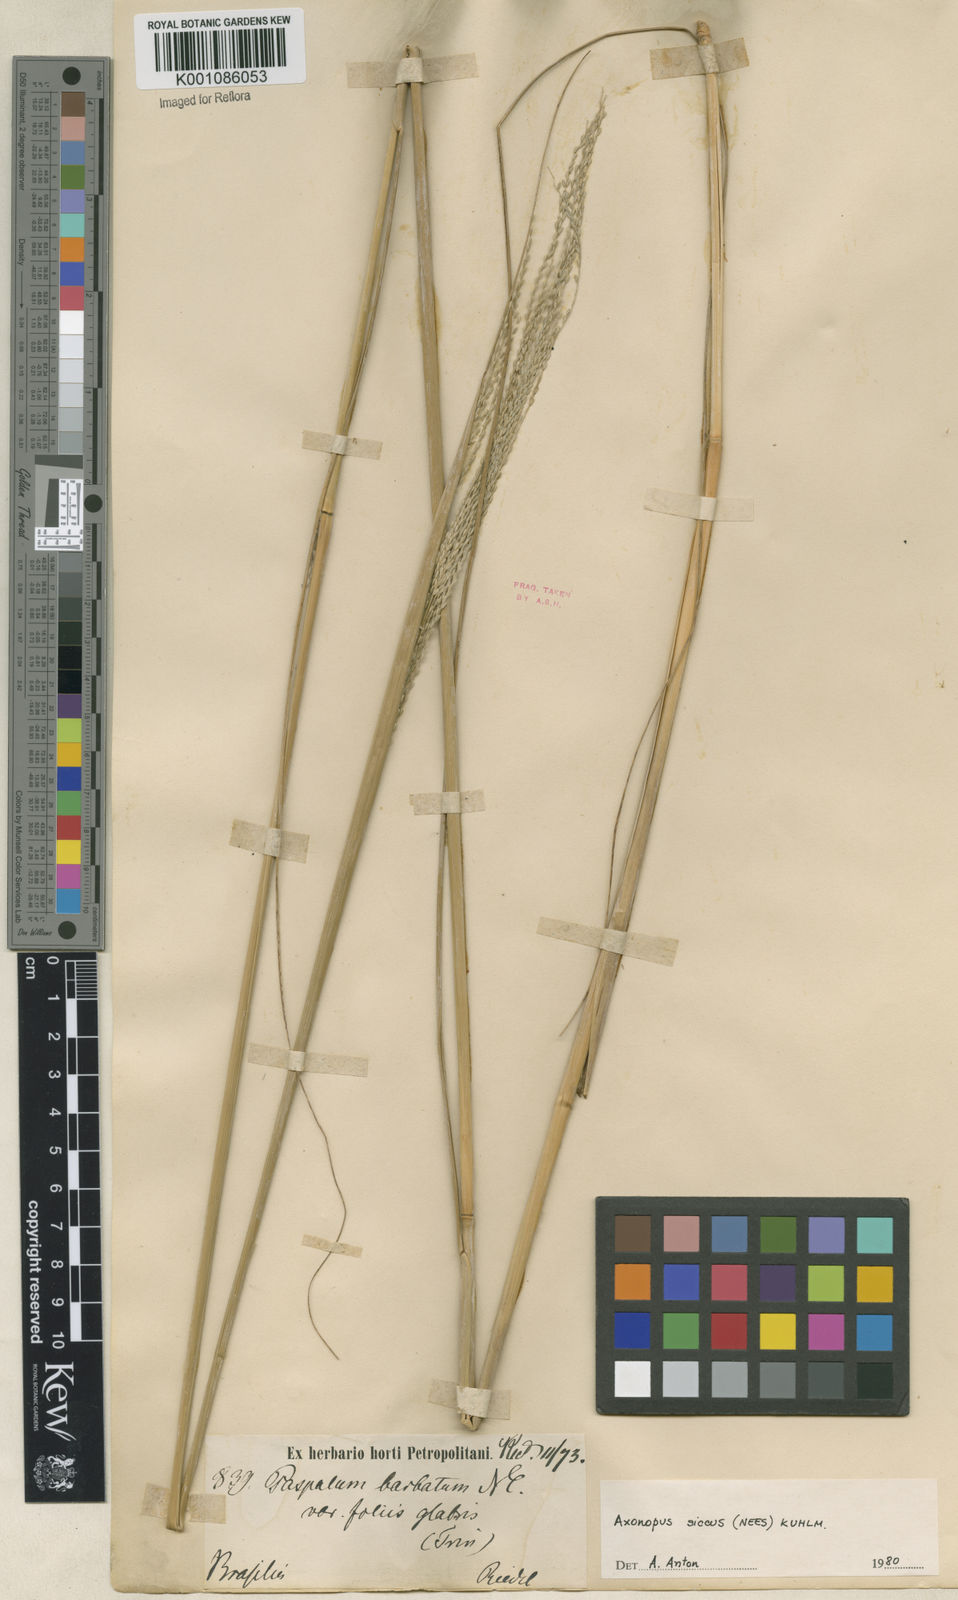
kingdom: Plantae
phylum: Tracheophyta
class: Liliopsida
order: Poales
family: Poaceae
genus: Axonopus
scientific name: Axonopus siccus
